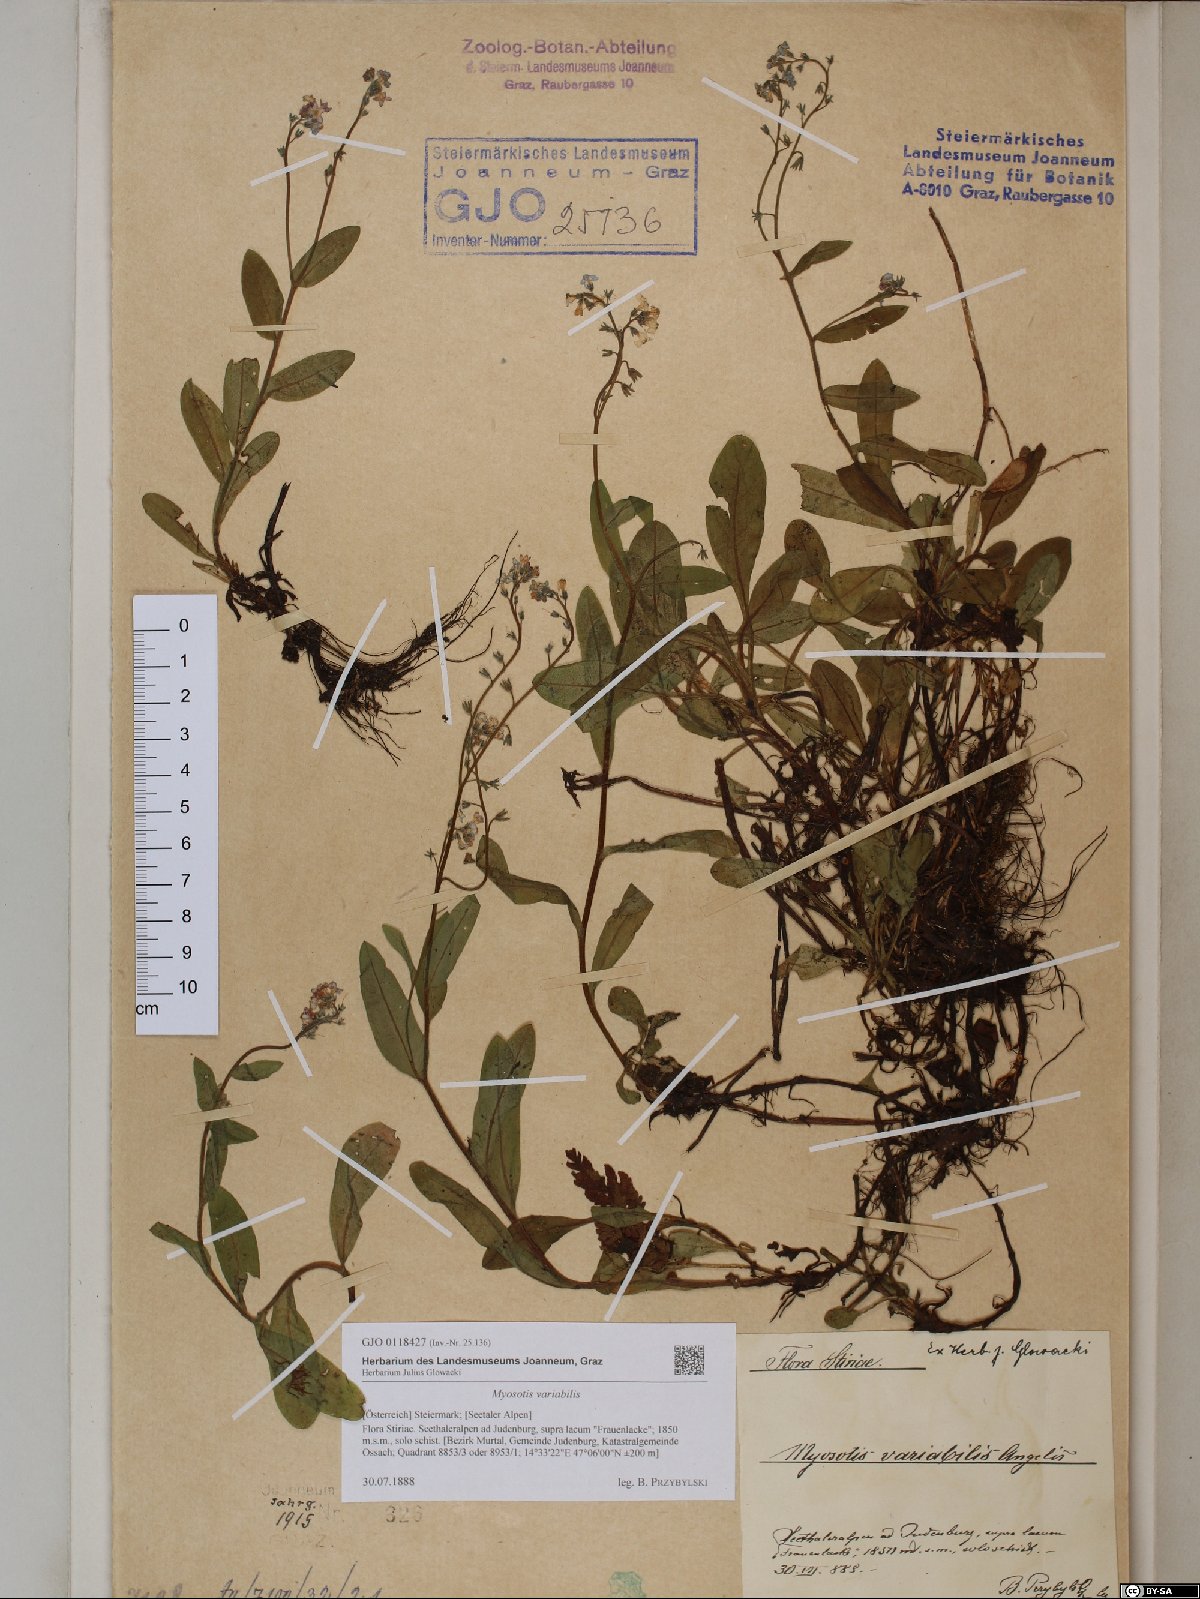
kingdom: Plantae
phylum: Tracheophyta
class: Magnoliopsida
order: Boraginales
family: Boraginaceae
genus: Myosotis
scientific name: Myosotis decumbens
